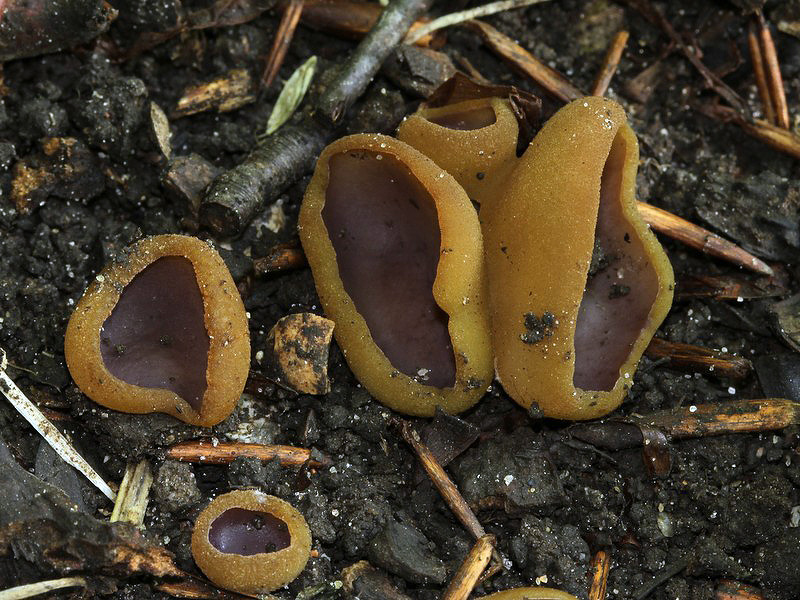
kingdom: Fungi
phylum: Ascomycota
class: Pezizomycetes
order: Pezizales
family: Pezizaceae
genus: Paragalactinia
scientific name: Paragalactinia michelii
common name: gulkødet bægersvamp
